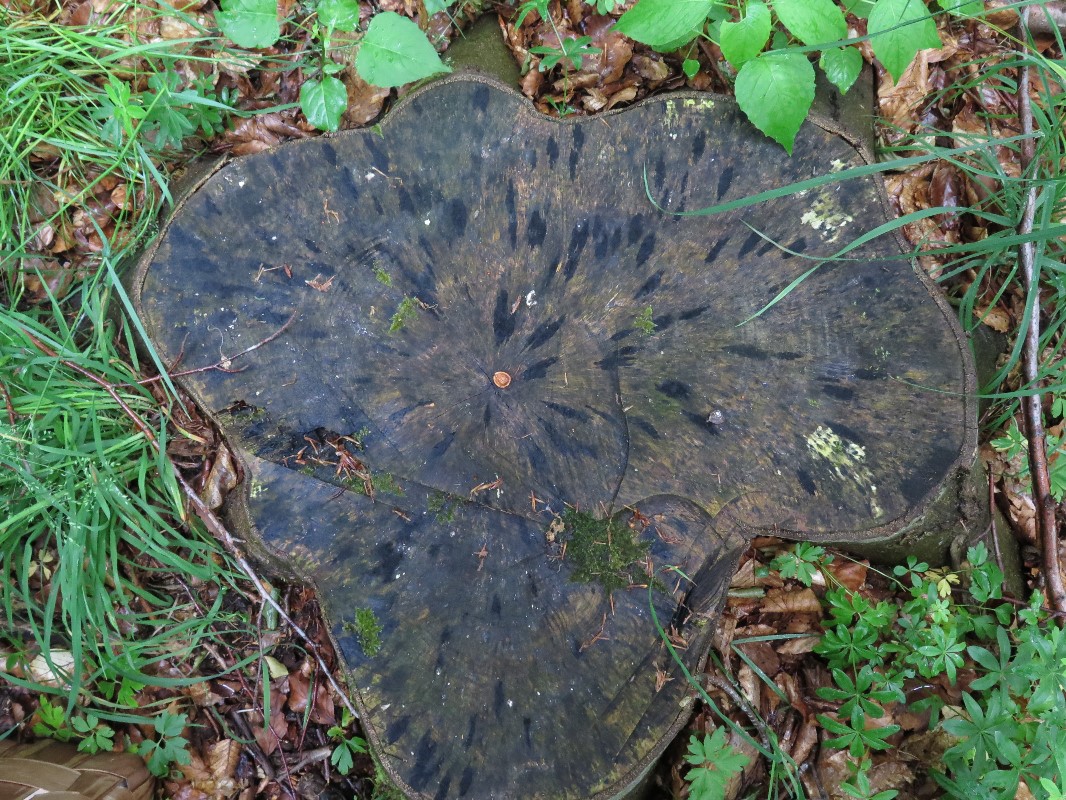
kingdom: Fungi
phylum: Ascomycota
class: Leotiomycetes
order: Helotiales
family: Helotiaceae
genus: Bispora
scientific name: Bispora pallescens
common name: måtte-snitskive
